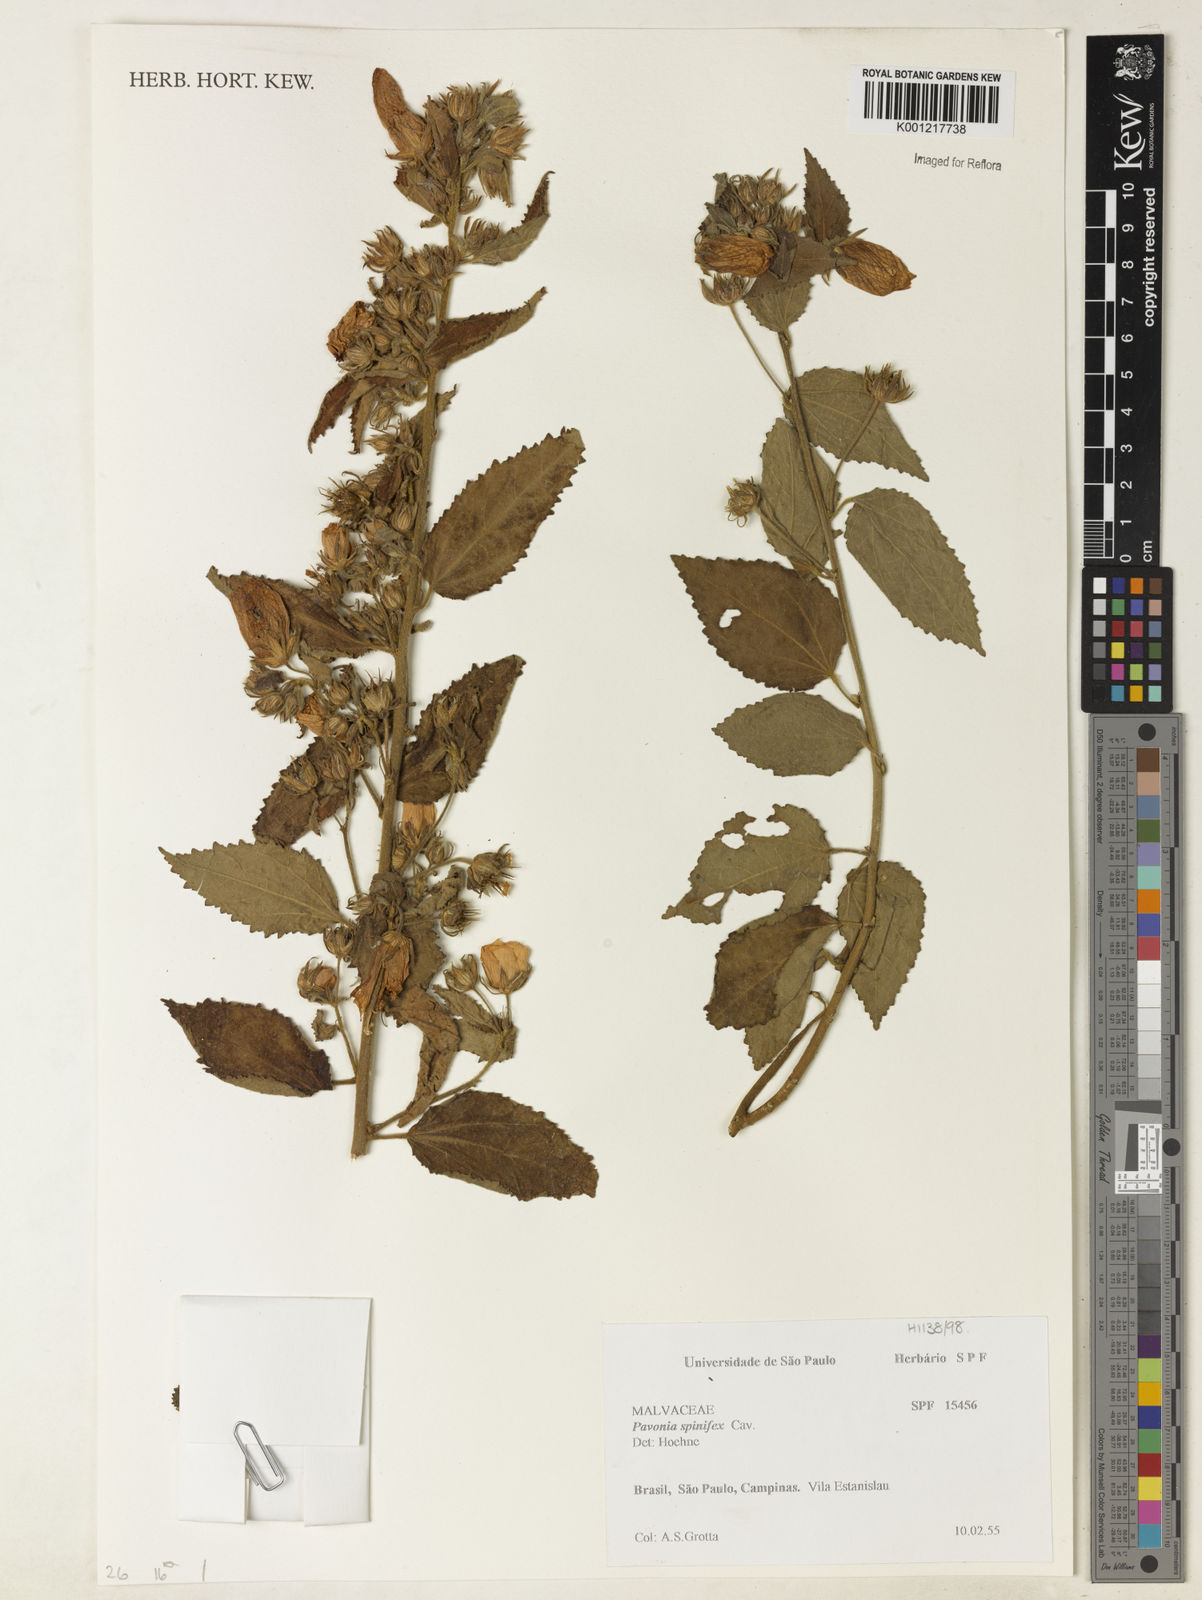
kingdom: Plantae
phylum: Tracheophyta
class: Magnoliopsida
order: Malvales
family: Malvaceae
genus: Pavonia
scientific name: Pavonia spinifex
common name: Ginger bush
